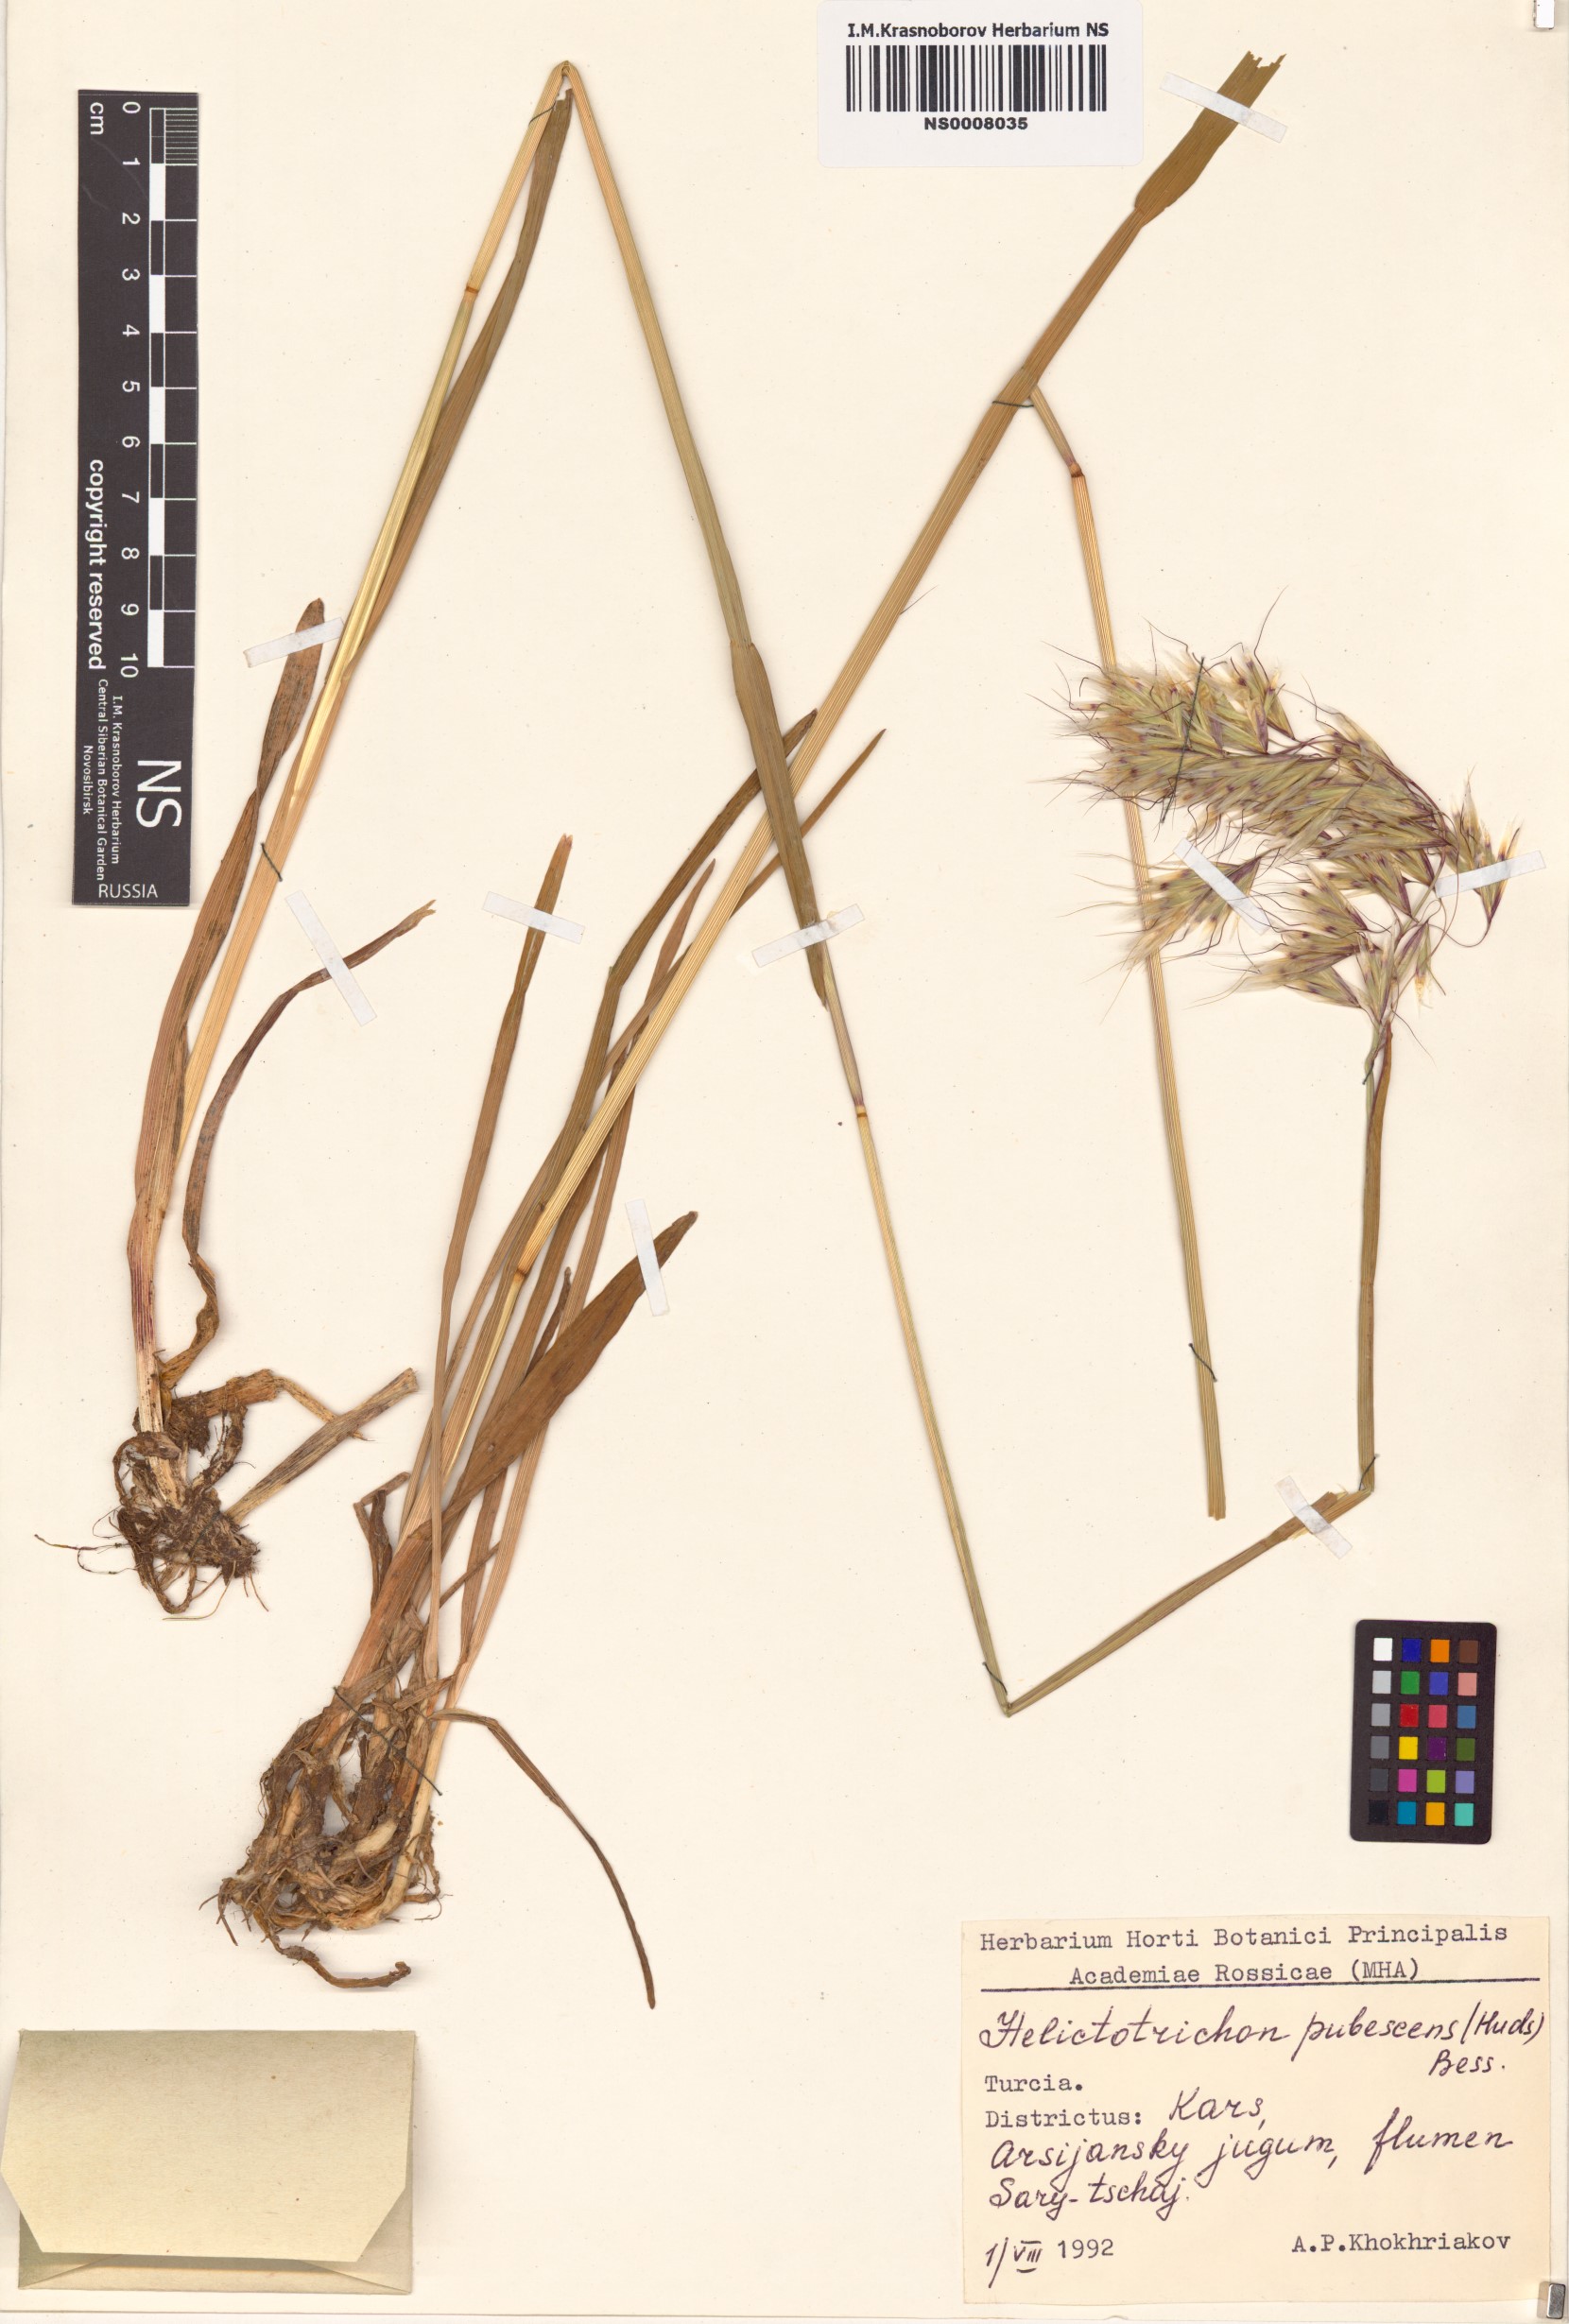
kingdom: Plantae
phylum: Tracheophyta
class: Liliopsida
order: Poales
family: Poaceae
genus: Avenula
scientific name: Avenula pubescens
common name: Downy alpine oatgrass
